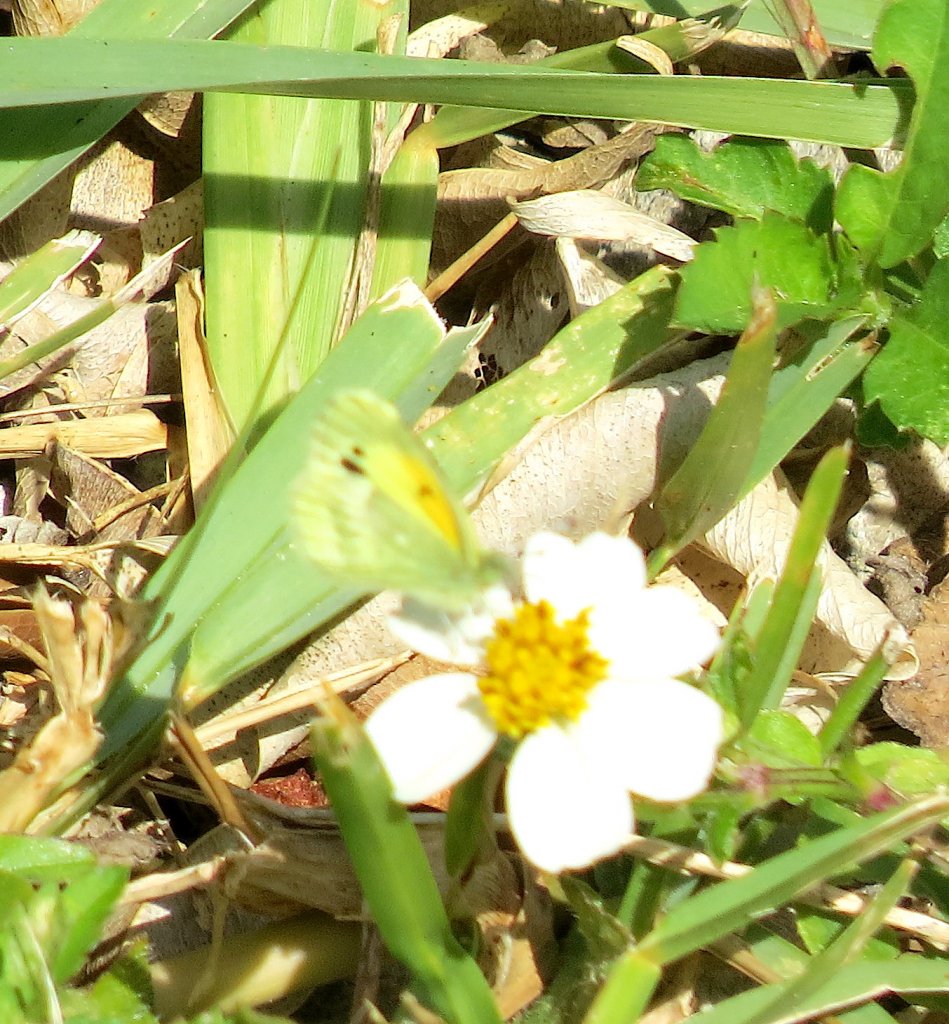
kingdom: Animalia
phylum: Arthropoda
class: Insecta
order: Lepidoptera
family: Pieridae
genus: Nathalis
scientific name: Nathalis iole
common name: Dainty Sulphur
